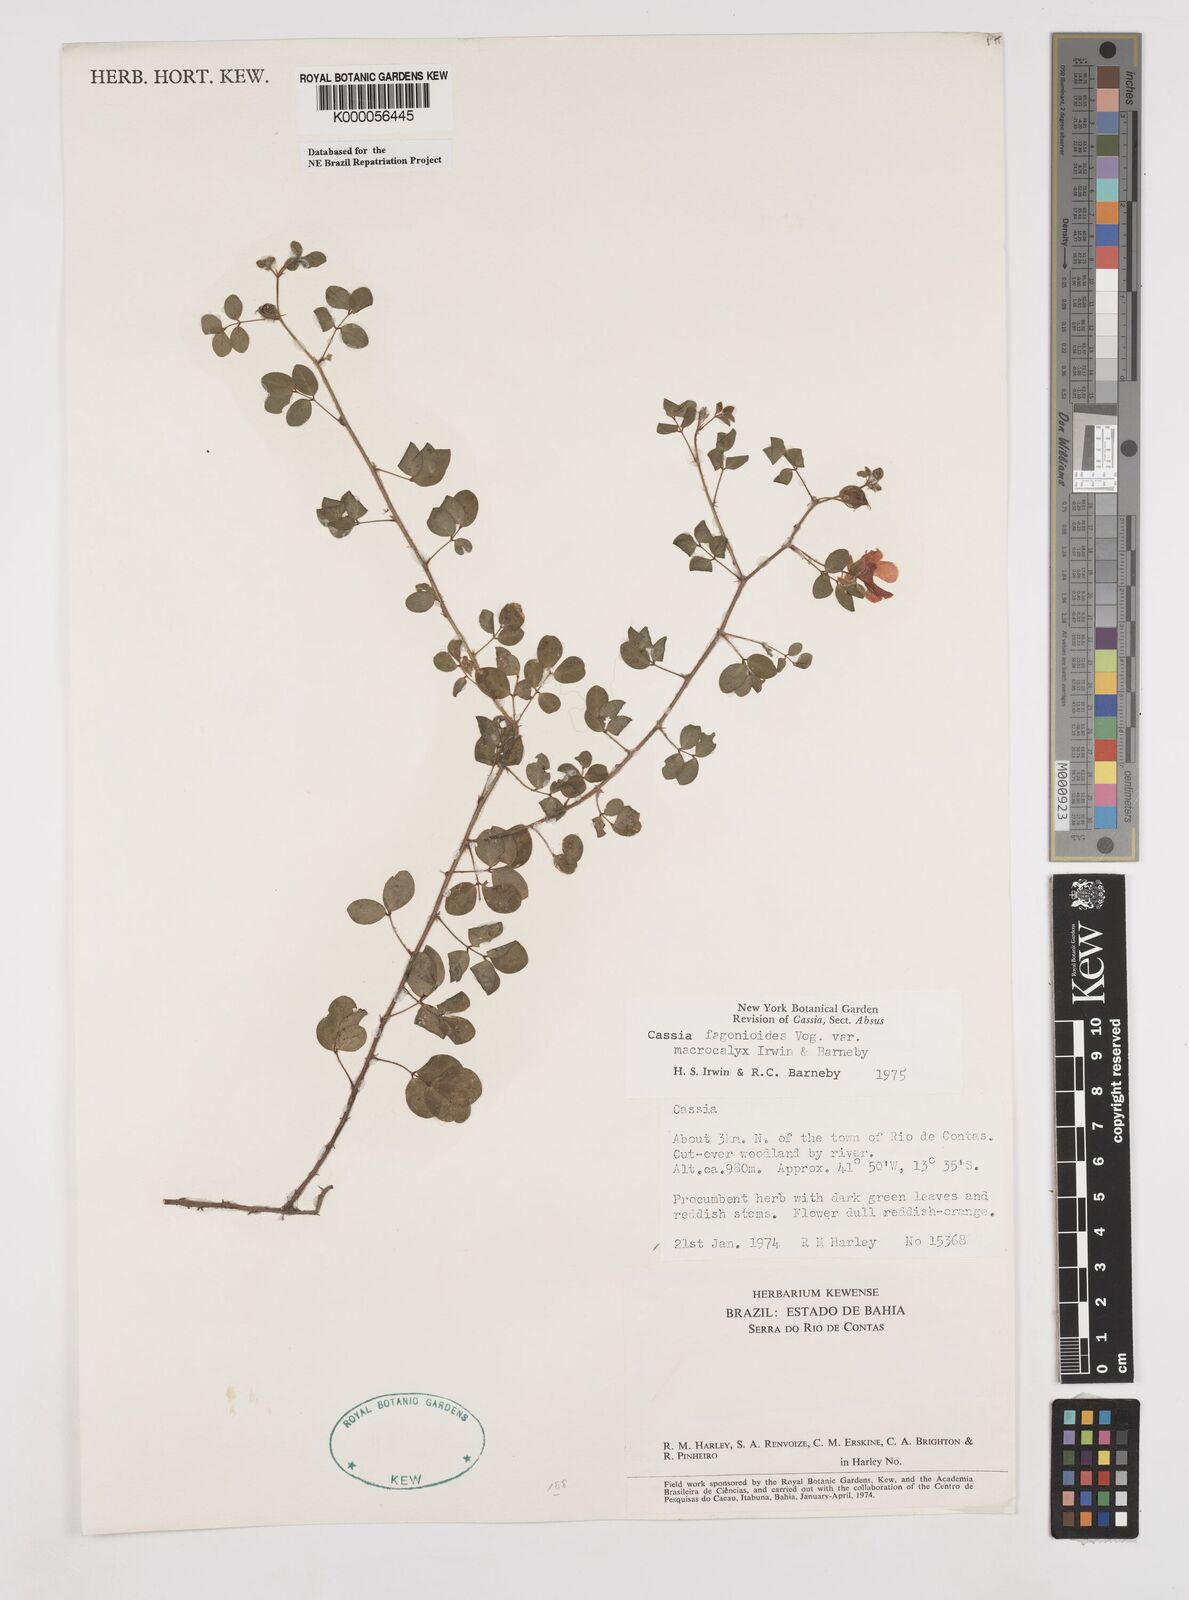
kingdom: Plantae
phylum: Tracheophyta
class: Magnoliopsida
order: Fabales
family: Fabaceae
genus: Chamaecrista
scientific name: Chamaecrista fagonioides
